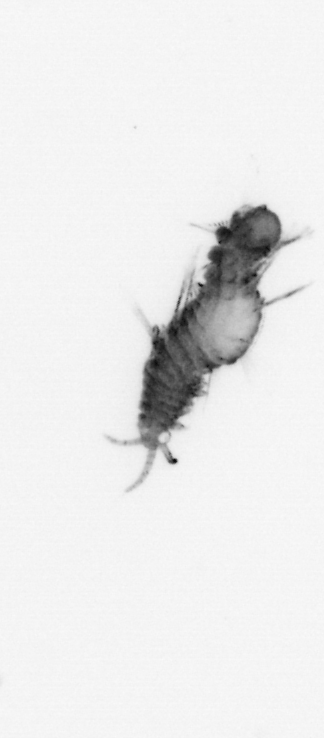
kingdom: Animalia
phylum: Annelida
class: Polychaeta
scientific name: Polychaeta
